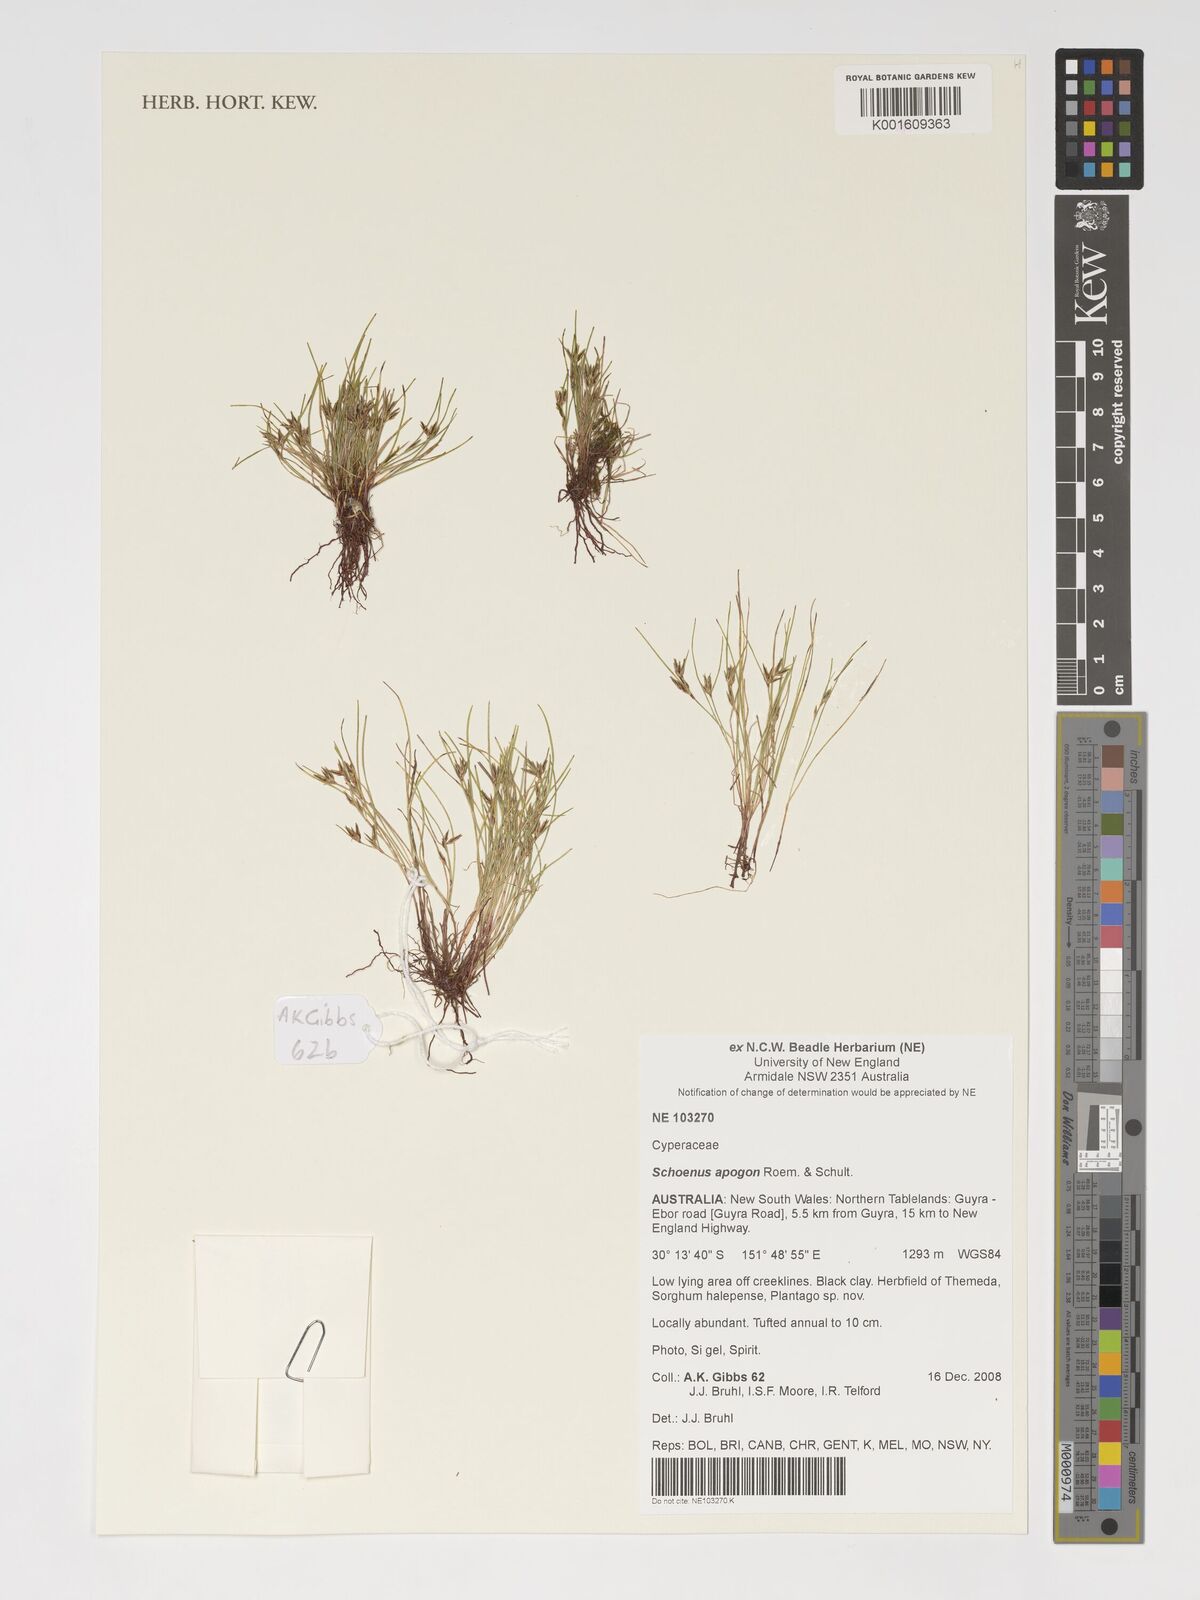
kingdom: Plantae
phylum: Tracheophyta
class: Liliopsida
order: Poales
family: Cyperaceae
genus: Schoenus
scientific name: Schoenus apogon
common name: Smooth bogrush
